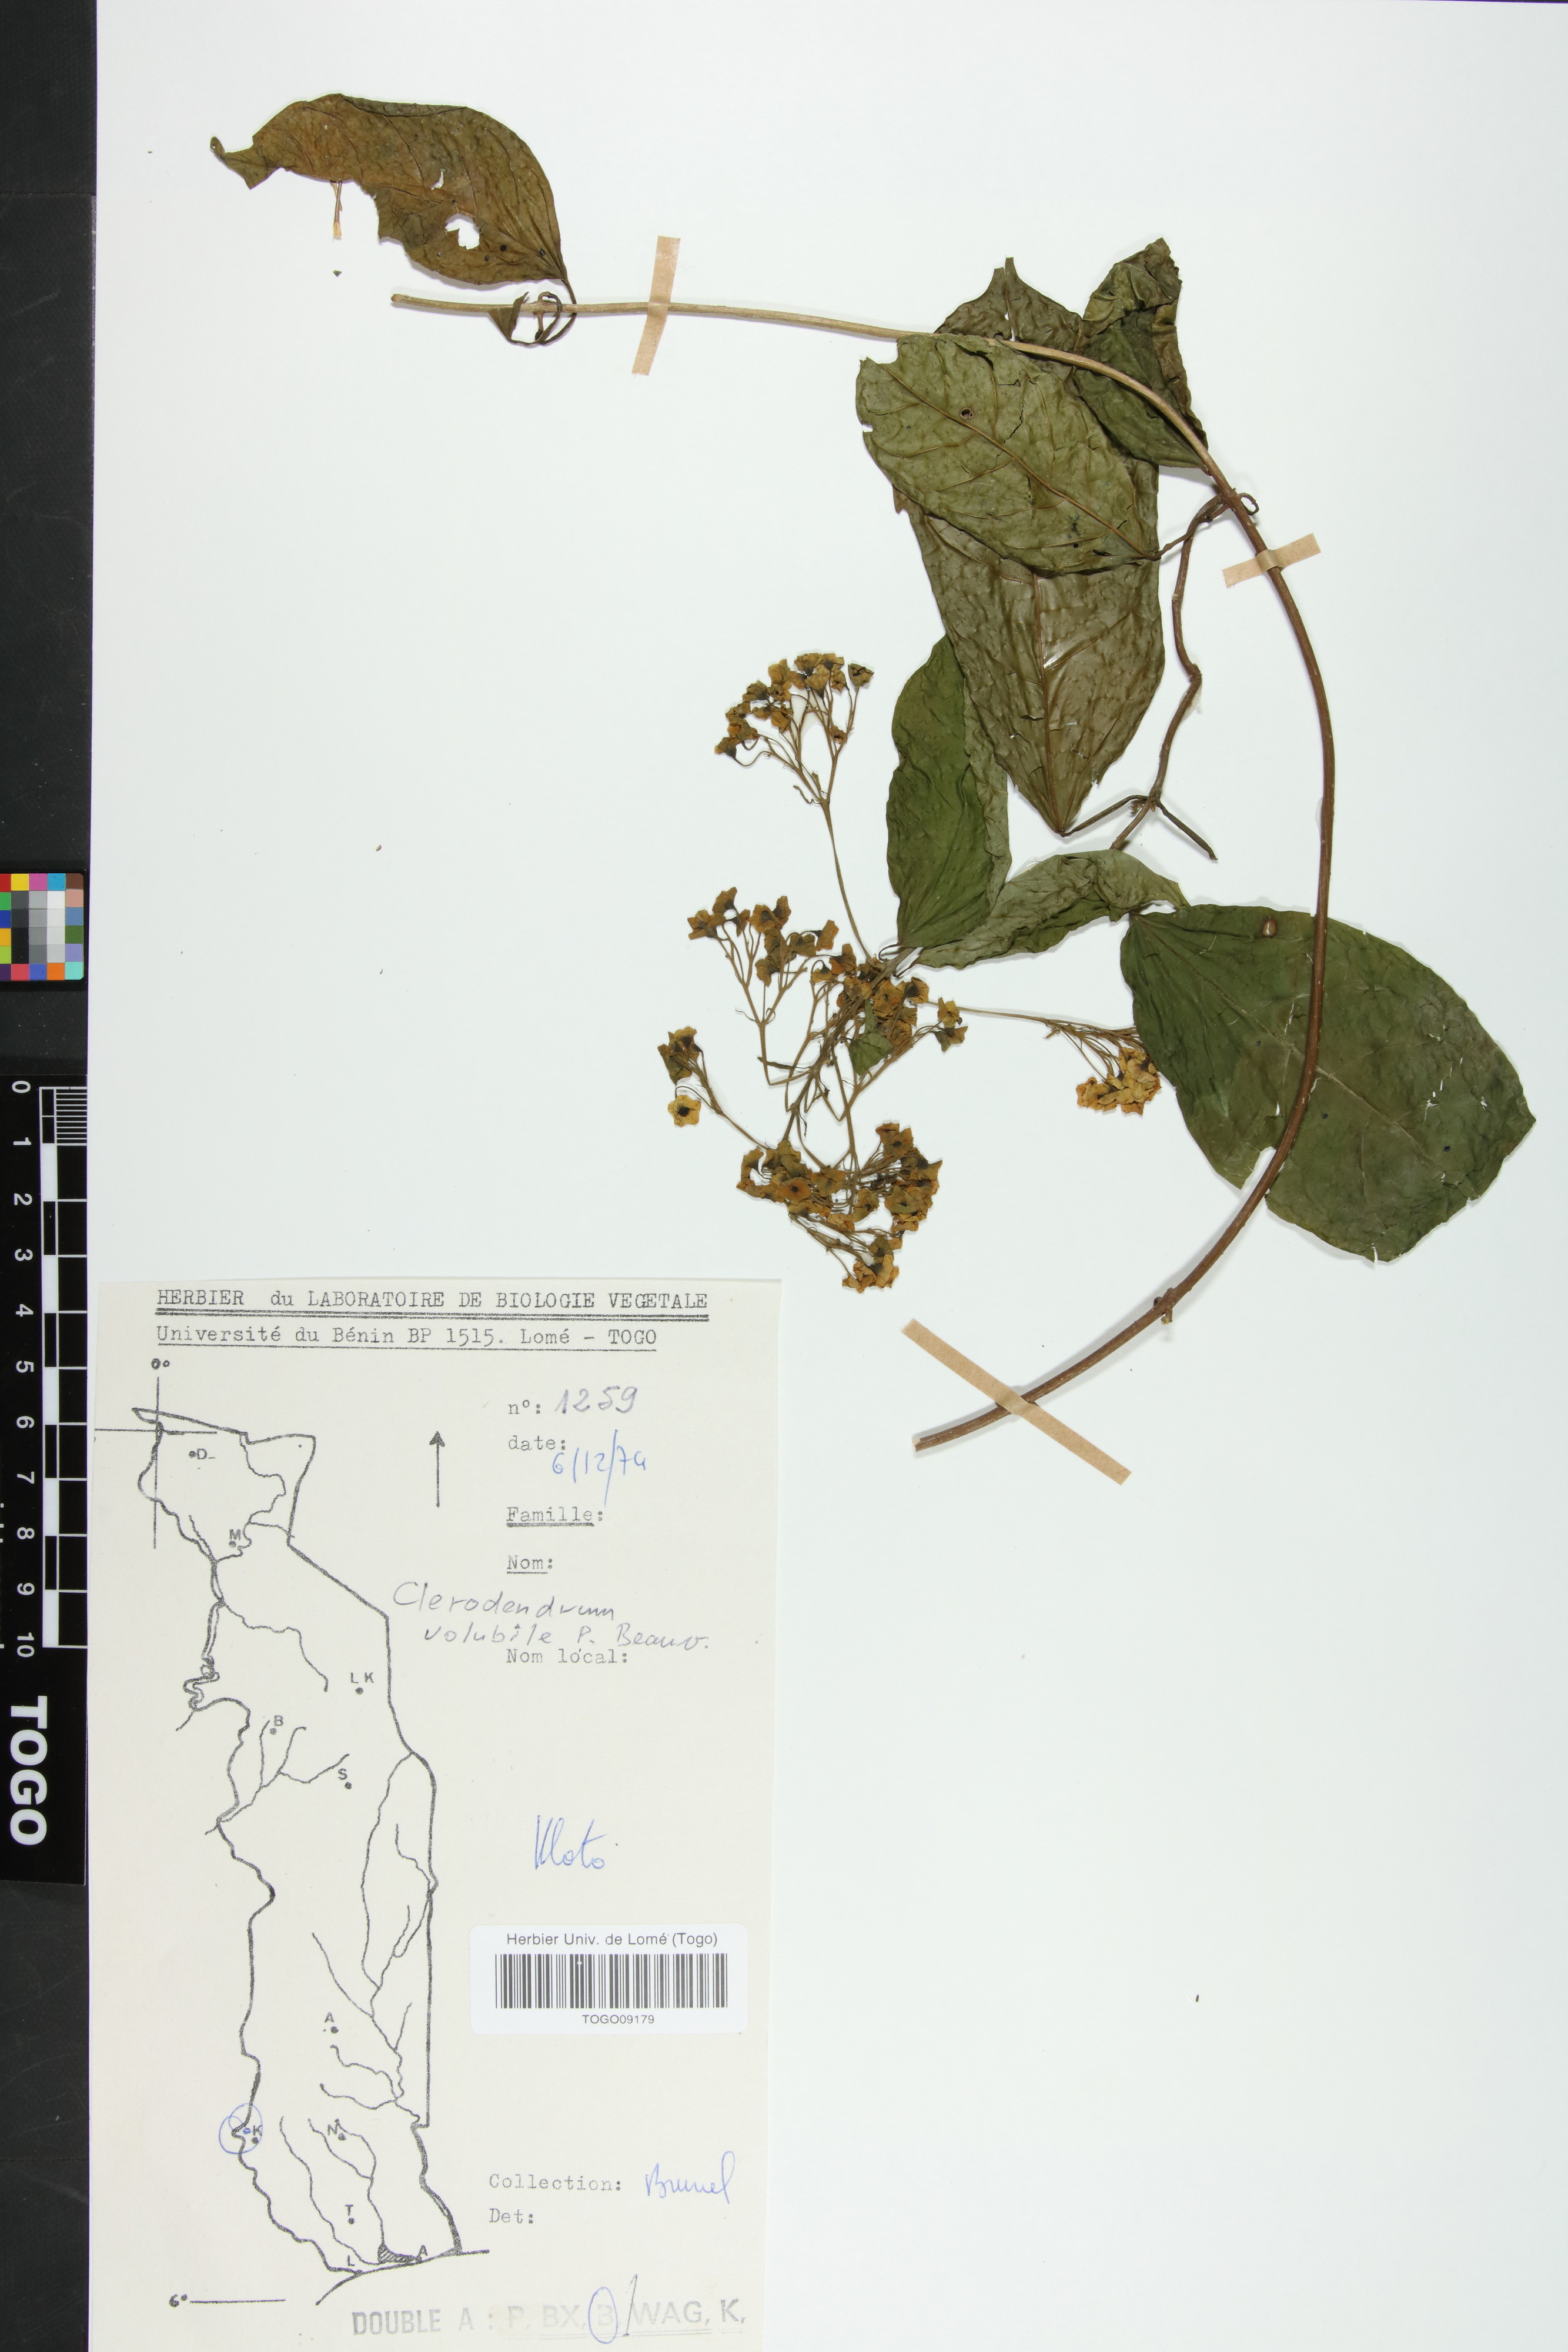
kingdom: Plantae
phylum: Tracheophyta
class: Magnoliopsida
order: Lamiales
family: Lamiaceae
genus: Clerodendrum
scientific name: Clerodendrum volubile
